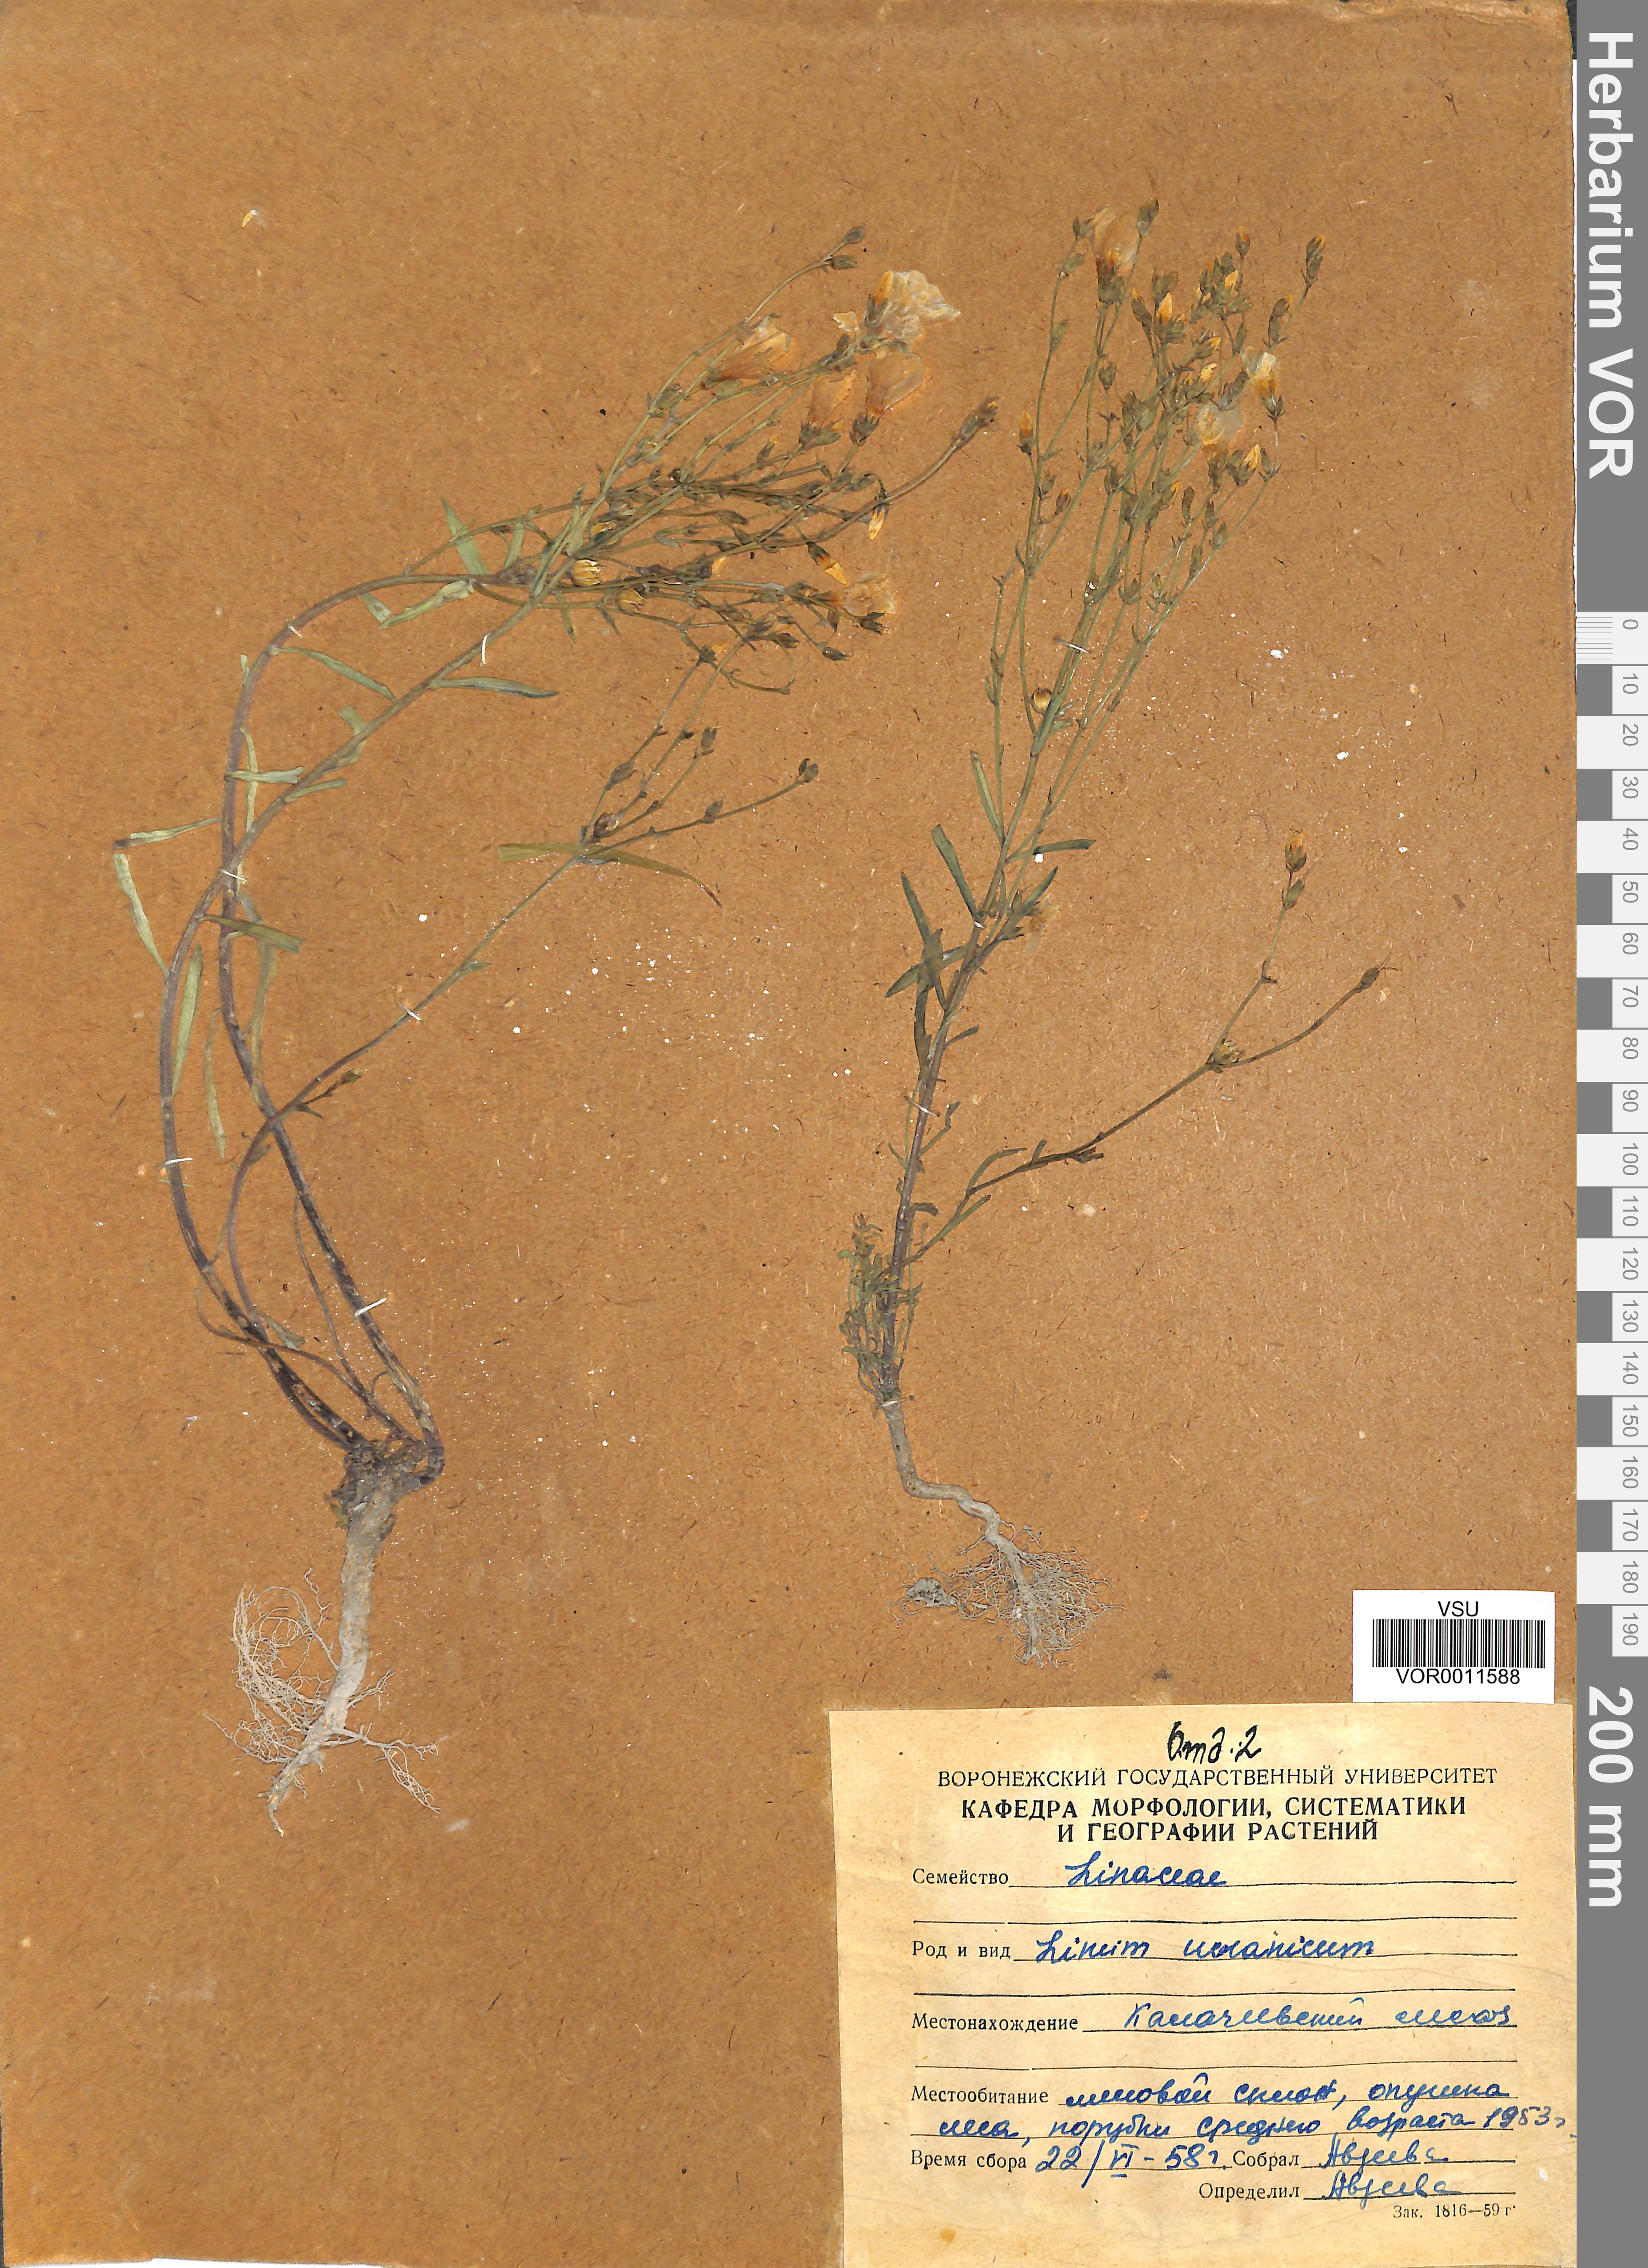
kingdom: Plantae
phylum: Tracheophyta
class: Magnoliopsida
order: Malpighiales
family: Linaceae
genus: Linum
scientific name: Linum ucranicum
